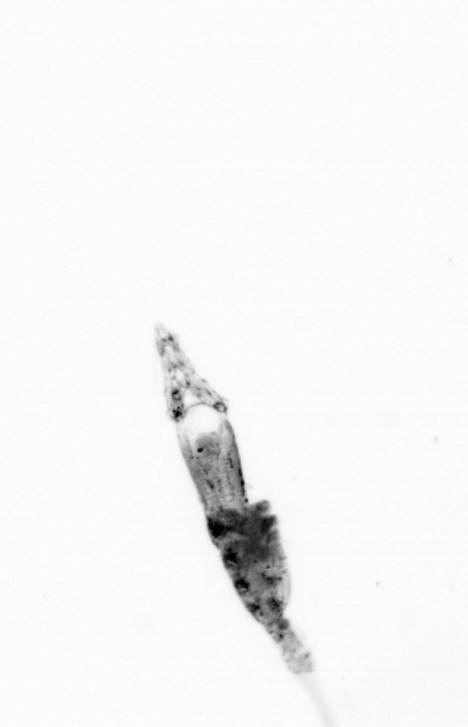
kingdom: Animalia
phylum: Arthropoda
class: Copepoda
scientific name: Copepoda
